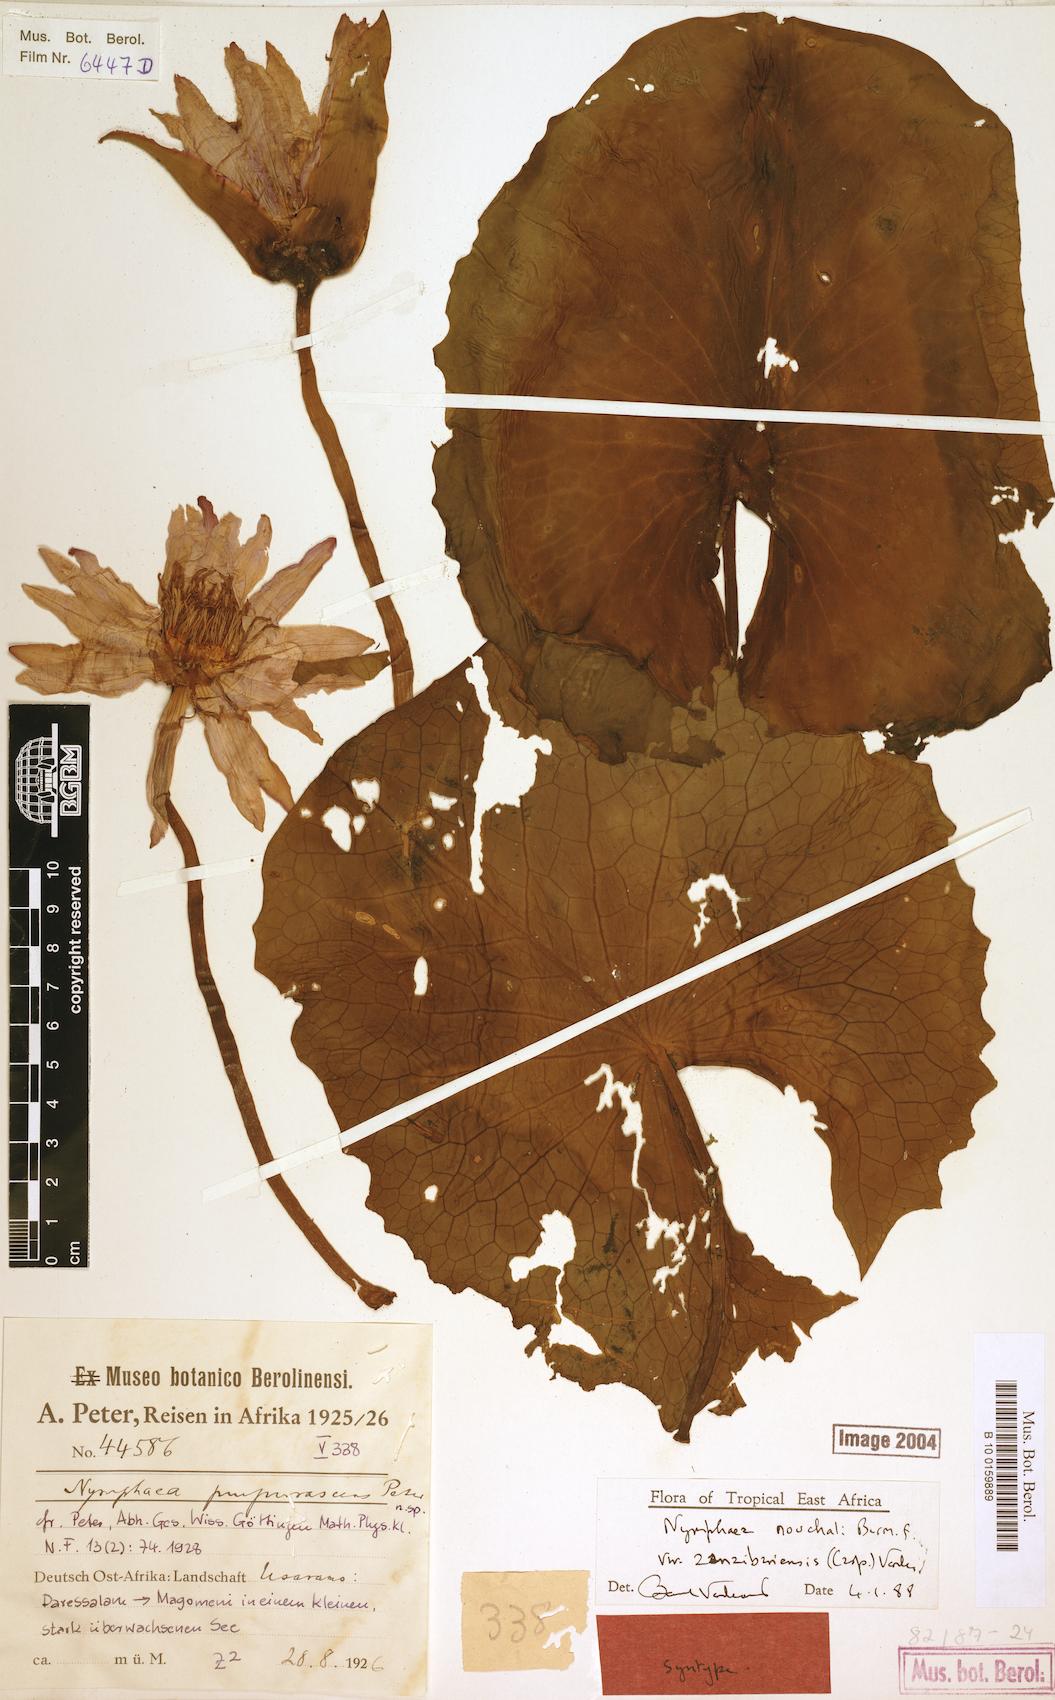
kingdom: Plantae
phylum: Tracheophyta
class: Magnoliopsida
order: Nymphaeales
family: Nymphaeaceae
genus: Nymphaea
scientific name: Nymphaea nouchali
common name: Blue lotus
